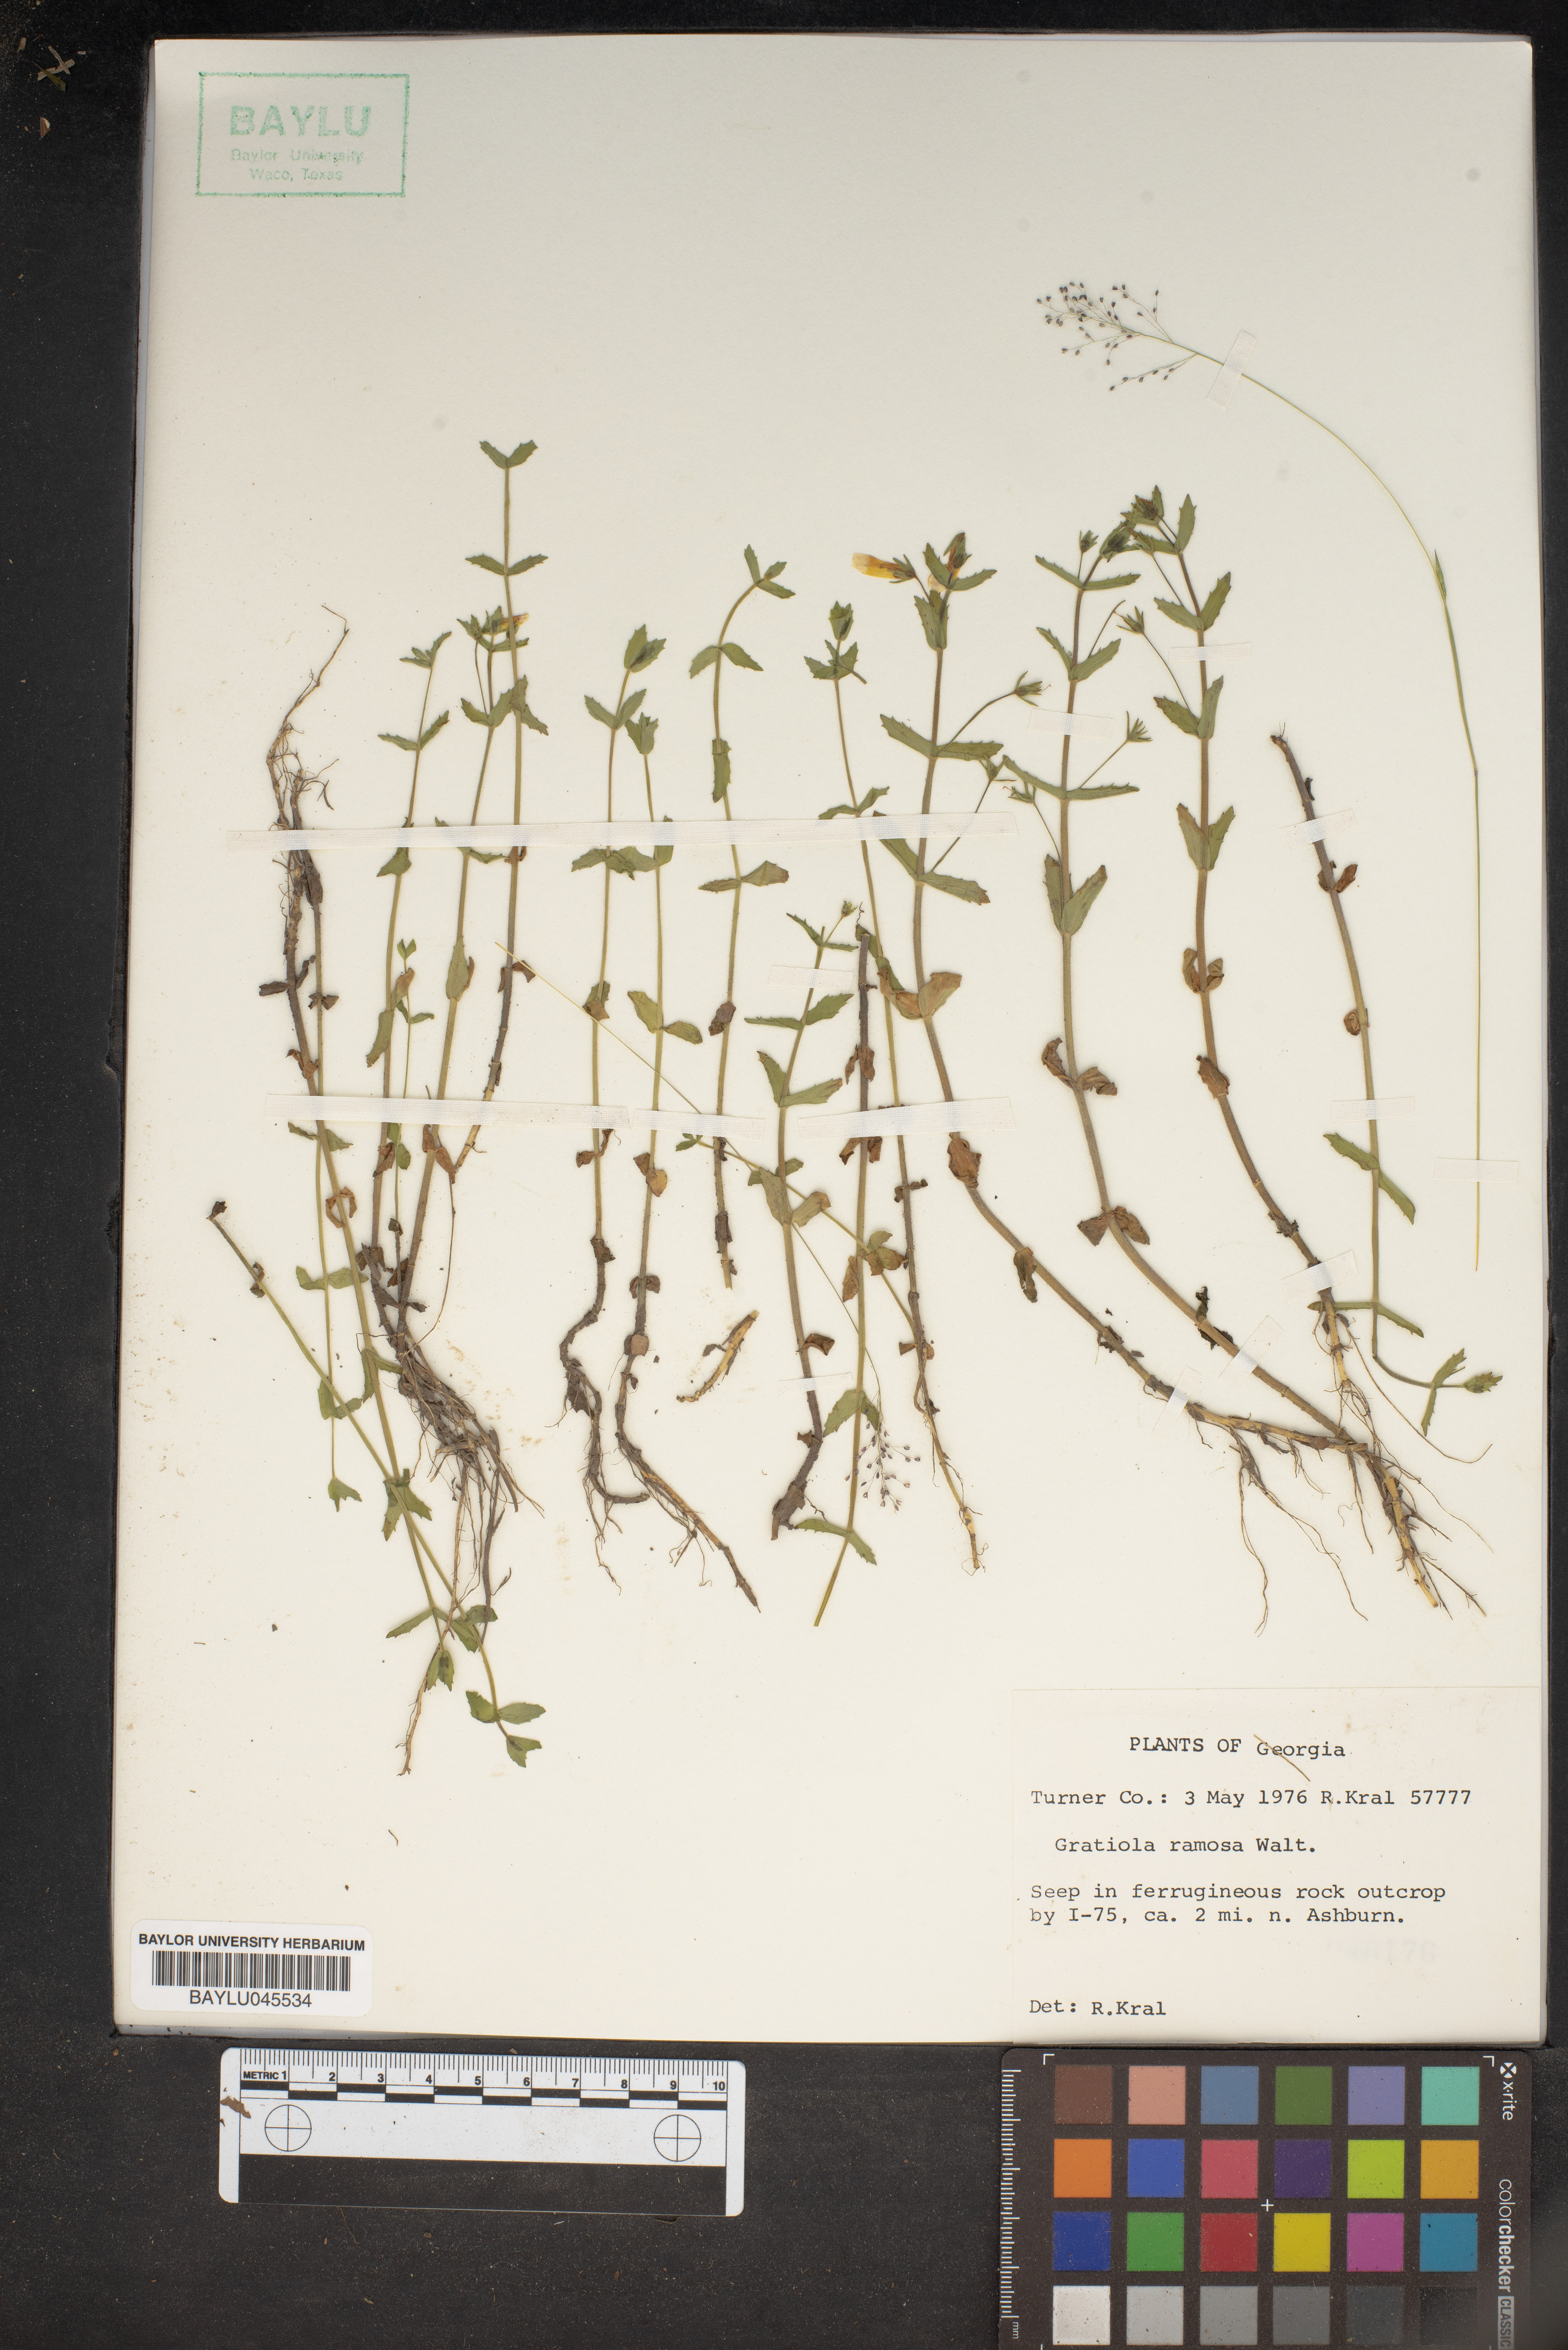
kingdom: Plantae
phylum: Tracheophyta
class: Magnoliopsida
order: Lamiales
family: Plantaginaceae
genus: Gratiola
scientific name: Gratiola ramosa
